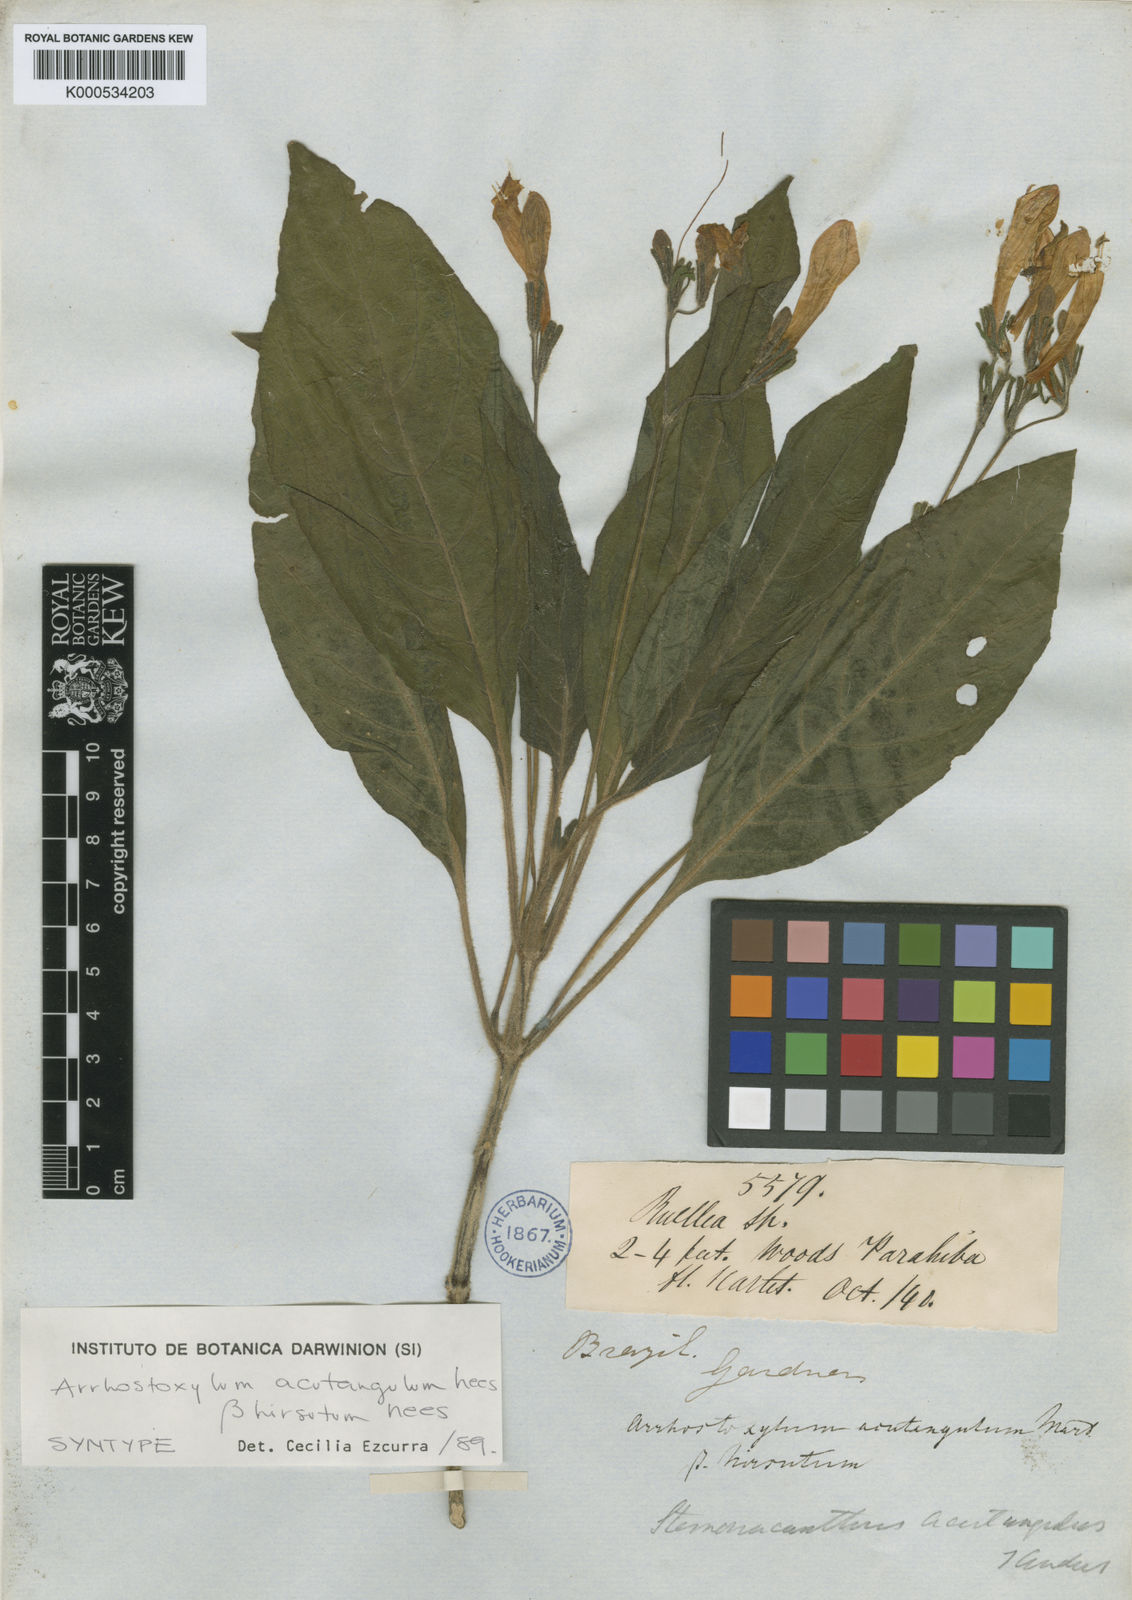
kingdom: Plantae
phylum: Tracheophyta
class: Magnoliopsida
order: Lamiales
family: Acanthaceae
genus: Ruellia
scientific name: Ruellia acutangula
